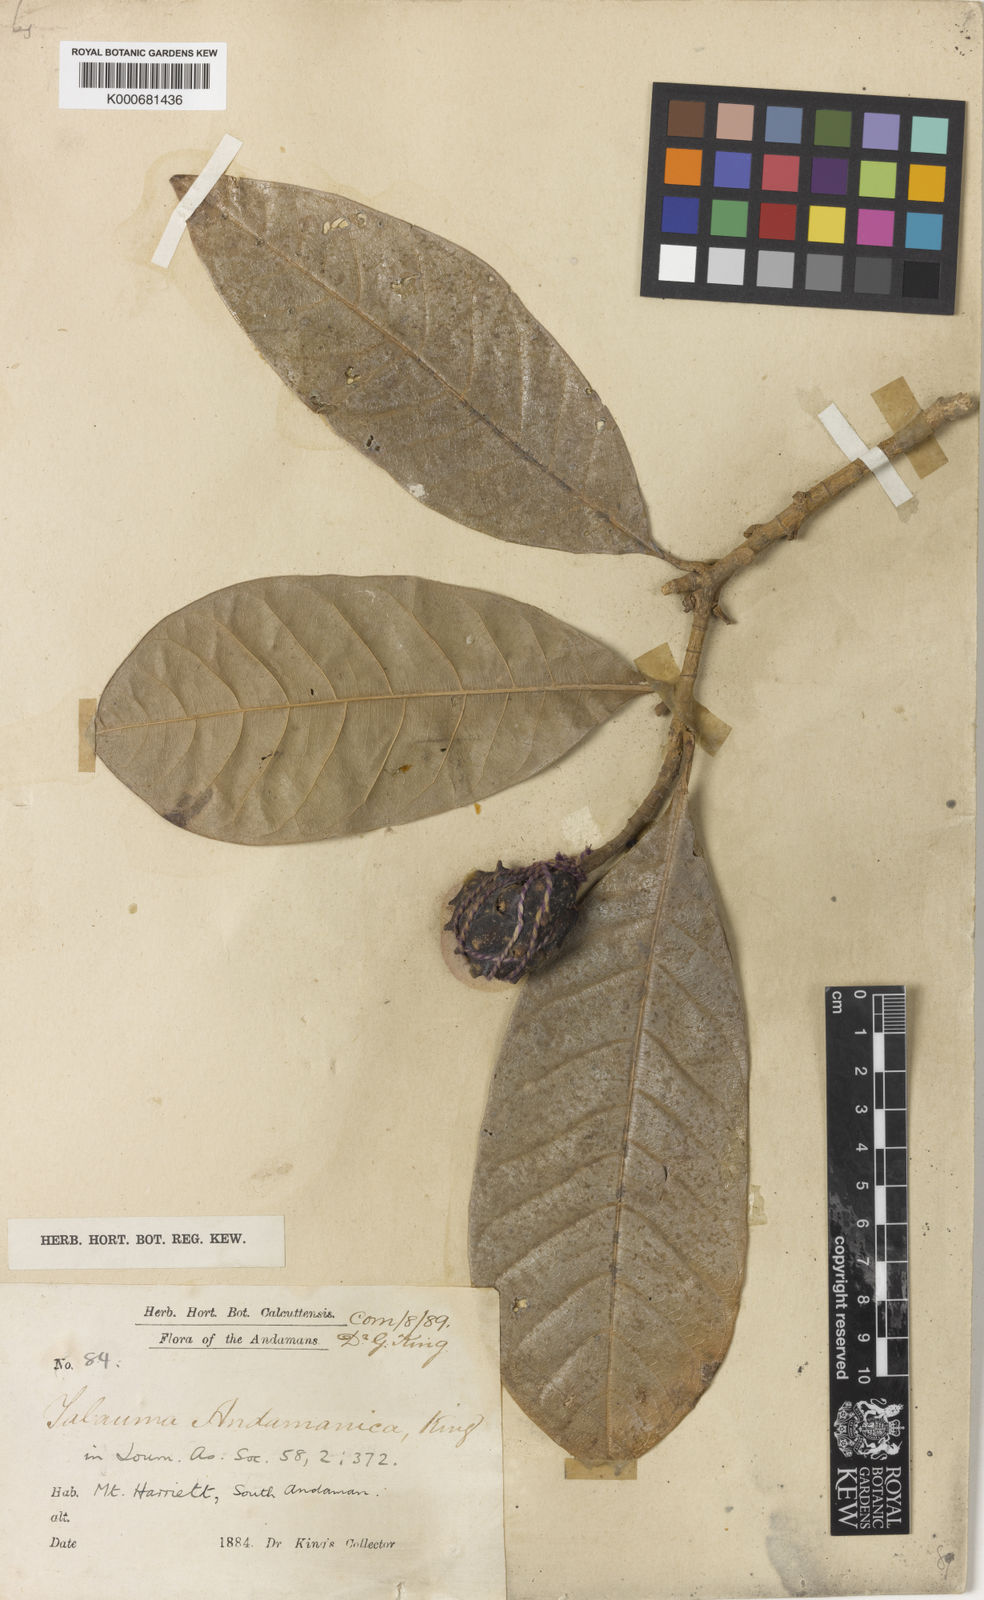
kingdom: Plantae
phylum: Tracheophyta
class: Magnoliopsida
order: Magnoliales
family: Magnoliaceae
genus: Magnolia
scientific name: Magnolia betongensis
